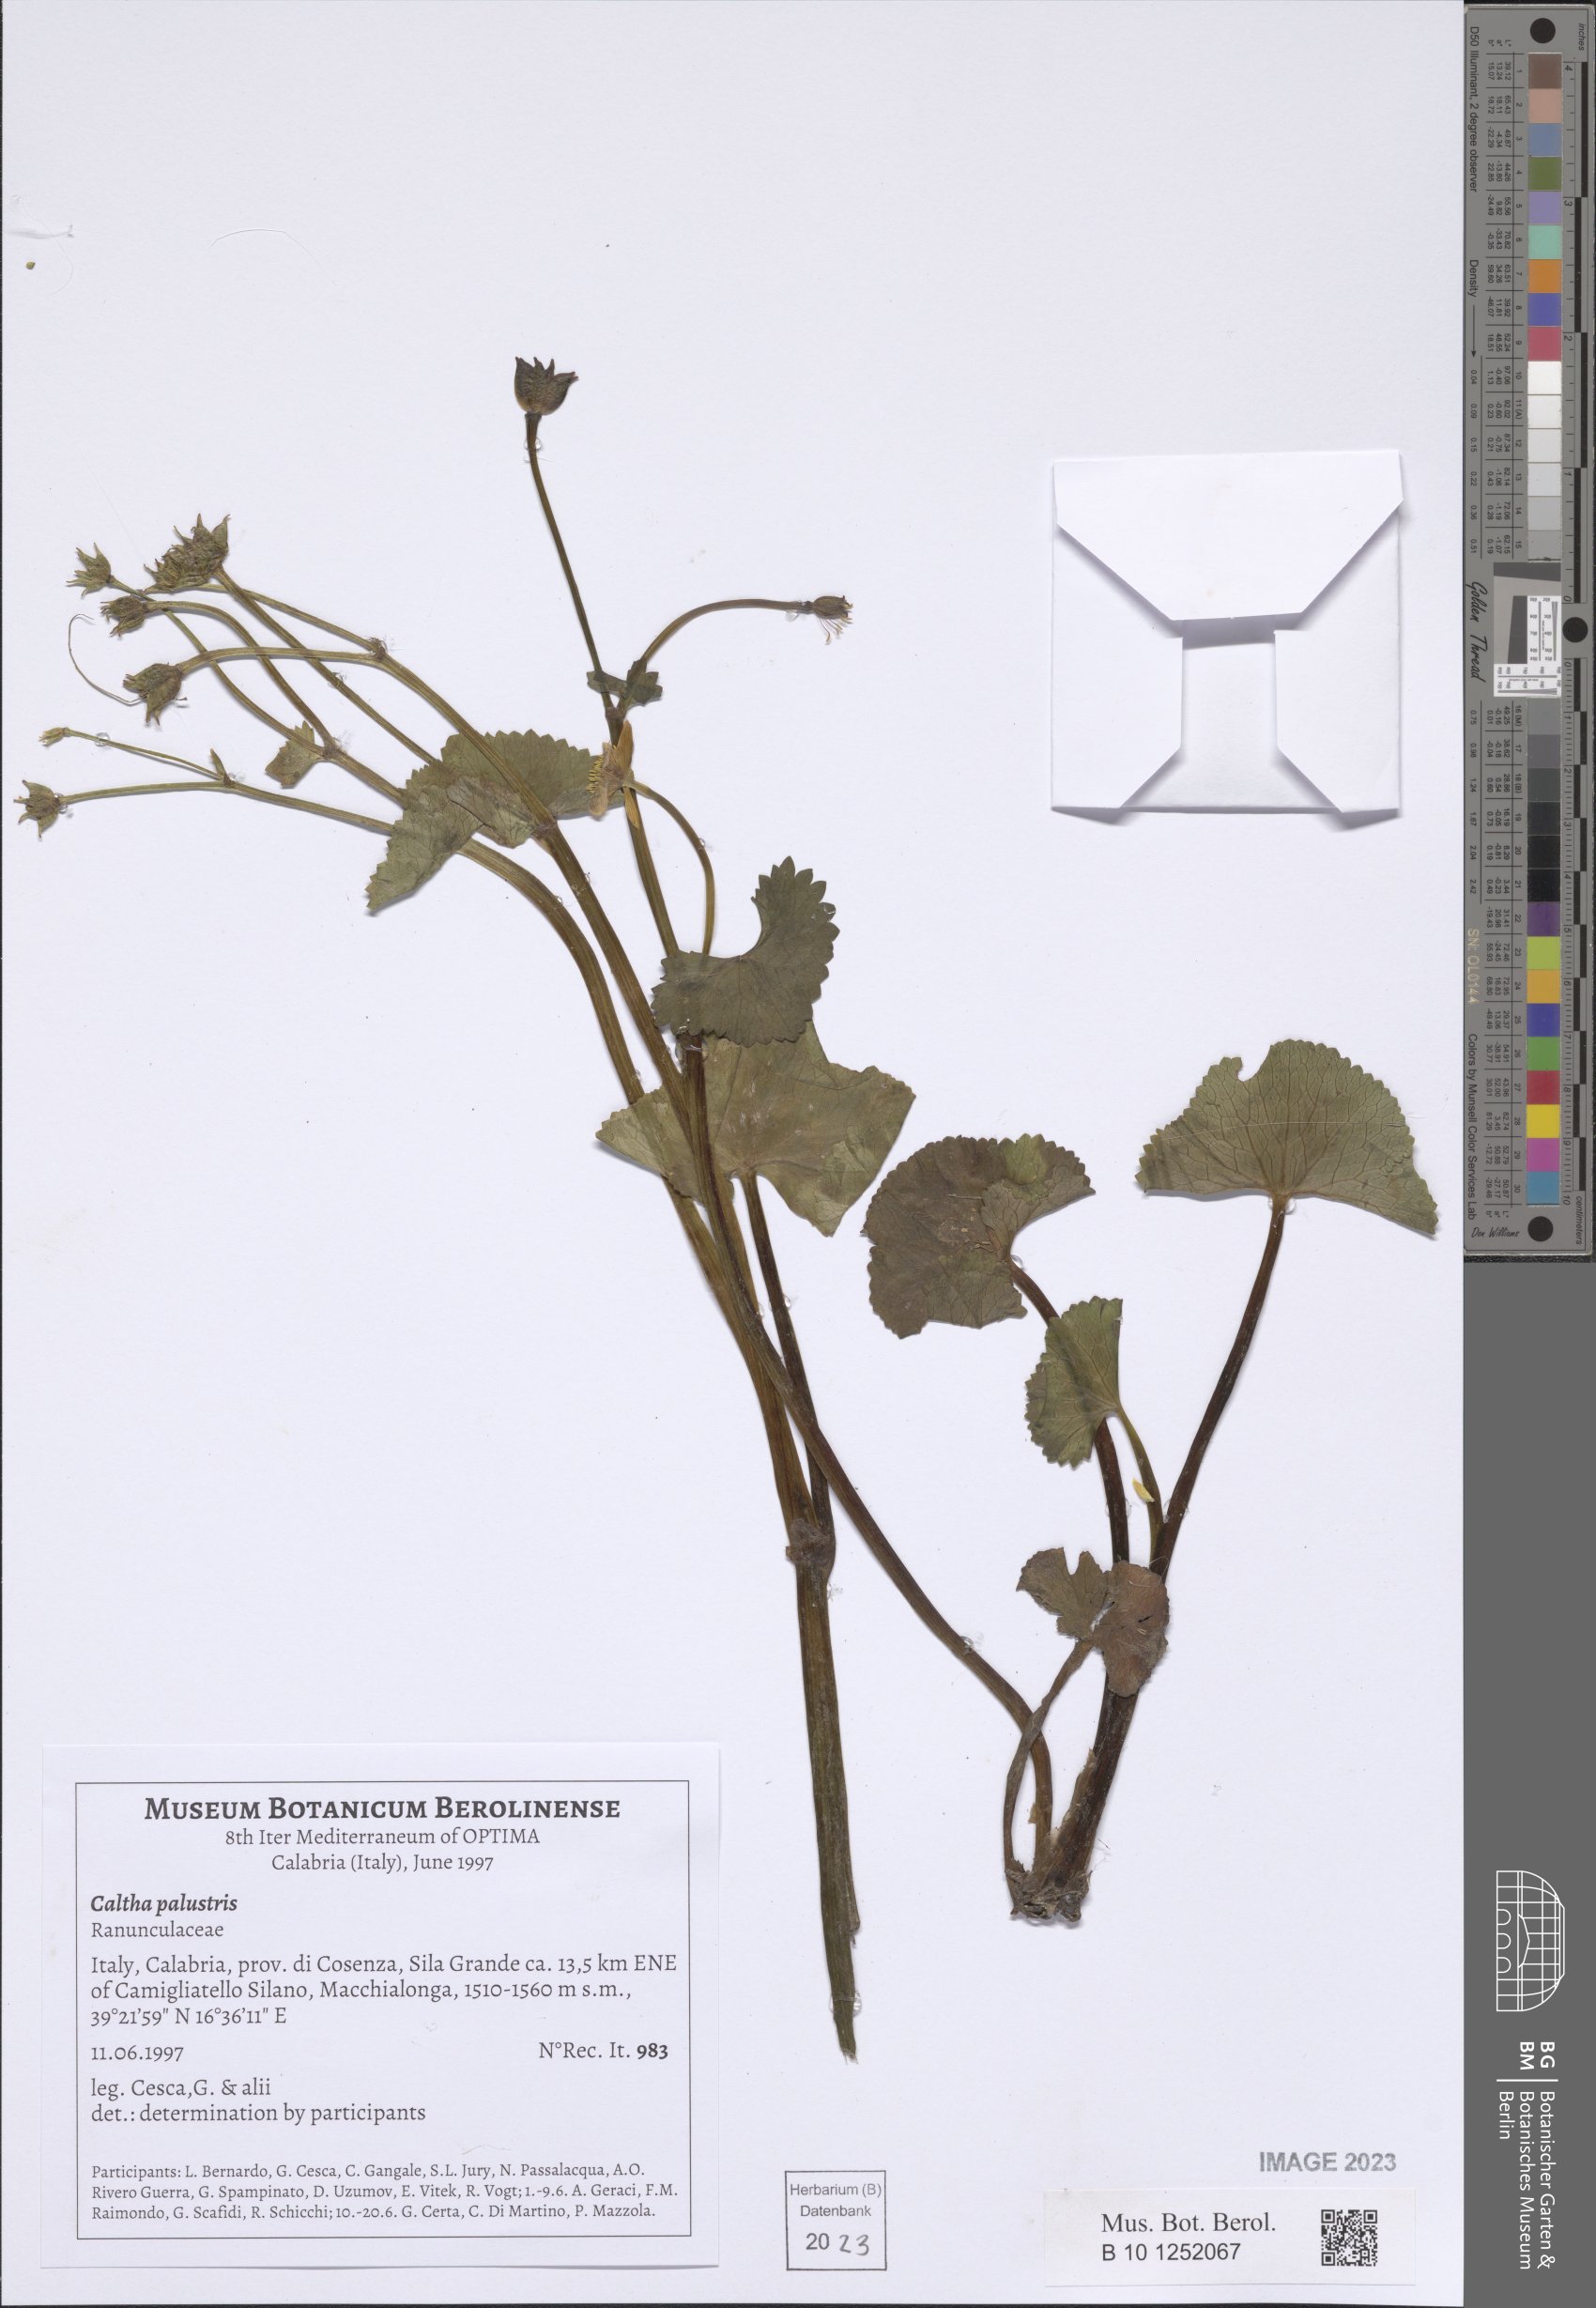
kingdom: Plantae
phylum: Tracheophyta
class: Magnoliopsida
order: Ranunculales
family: Ranunculaceae
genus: Caltha
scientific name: Caltha palustris
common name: Marsh marigold
